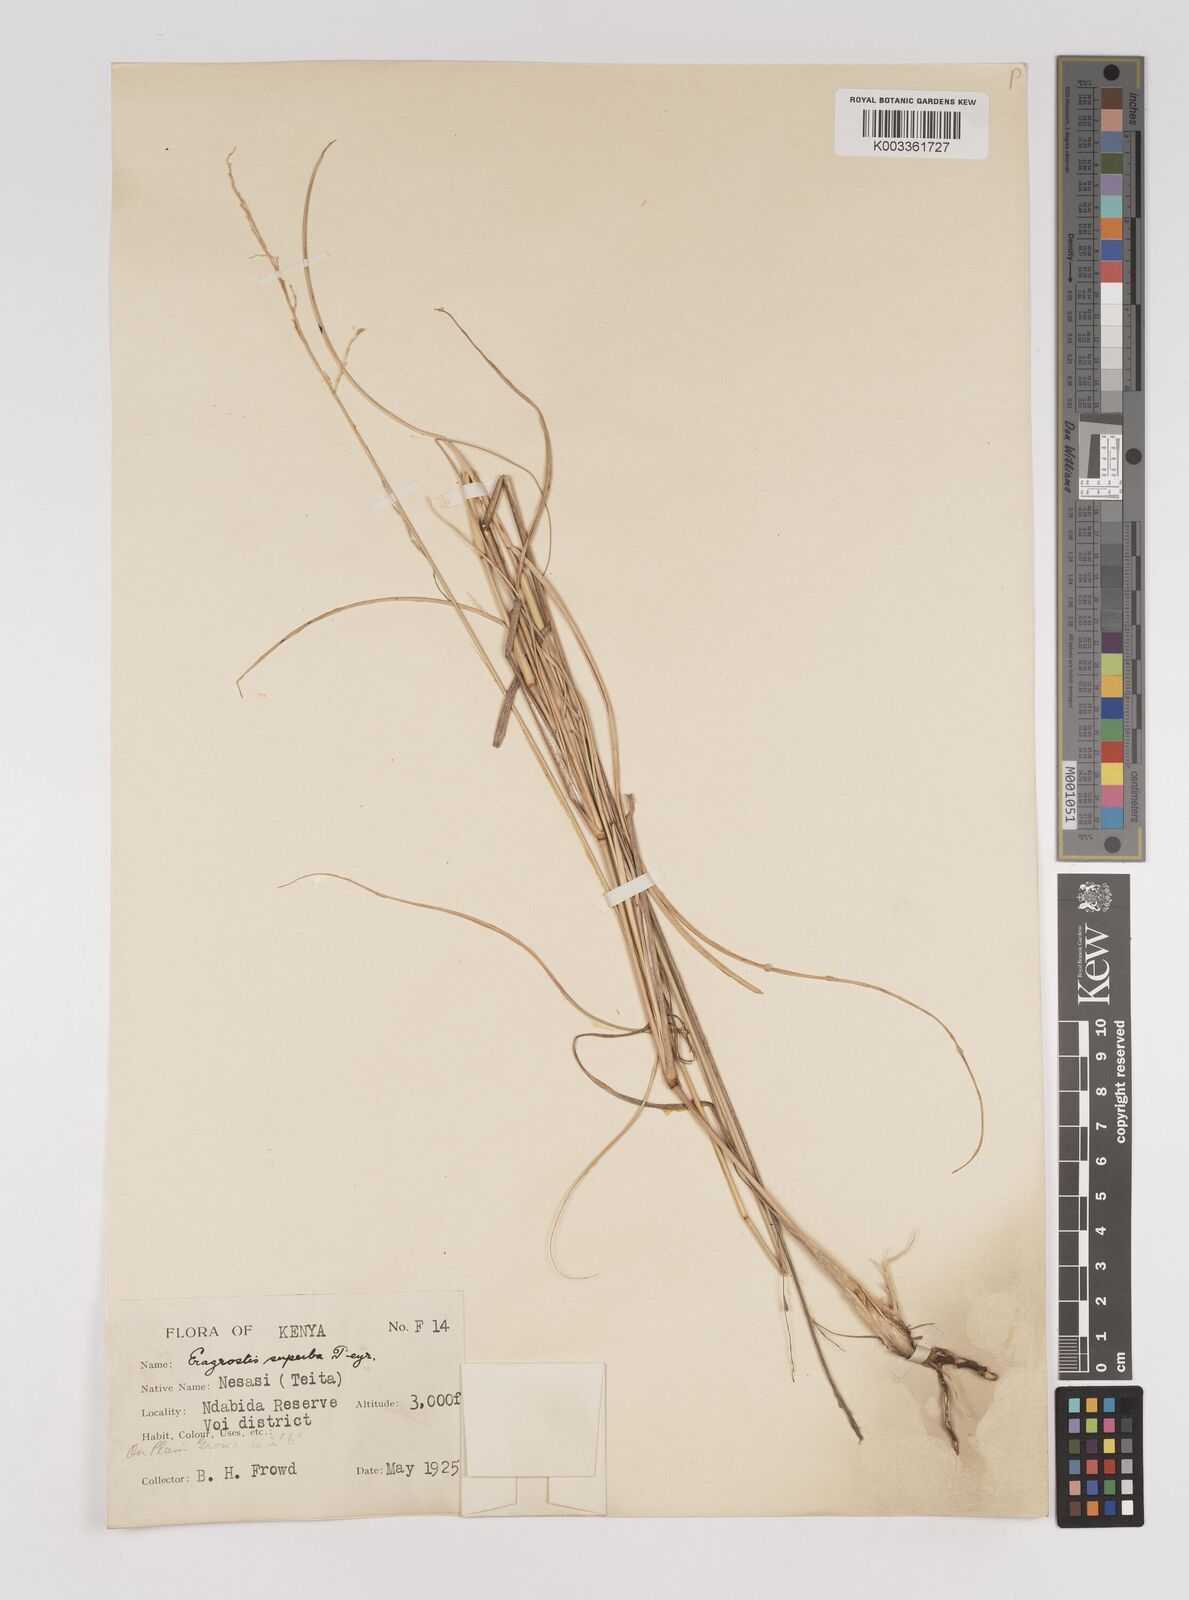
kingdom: Plantae
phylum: Tracheophyta
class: Liliopsida
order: Poales
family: Poaceae
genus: Eragrostis
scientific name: Eragrostis superba
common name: Wilman lovegrass
